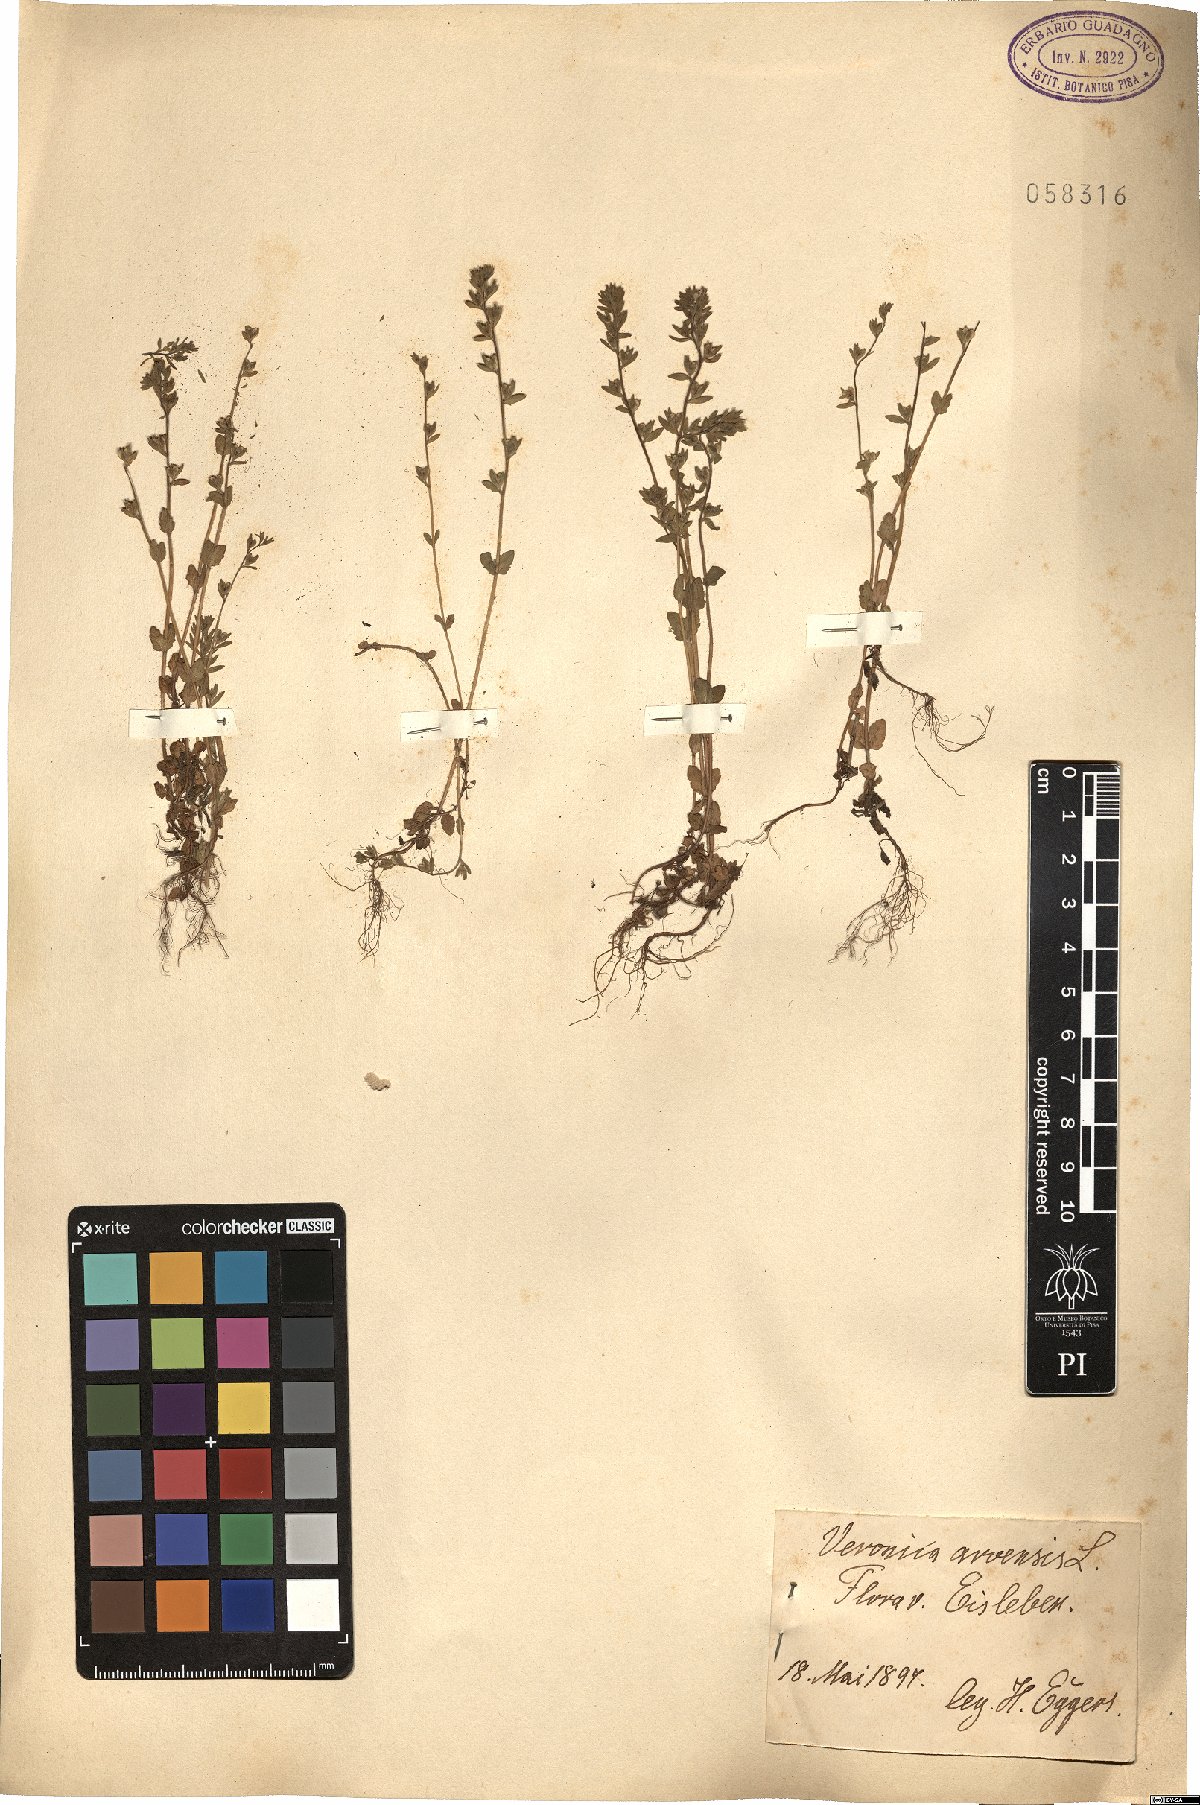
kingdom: Plantae
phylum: Tracheophyta
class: Magnoliopsida
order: Lamiales
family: Plantaginaceae
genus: Veronica
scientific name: Veronica arvensis
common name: Corn speedwell
